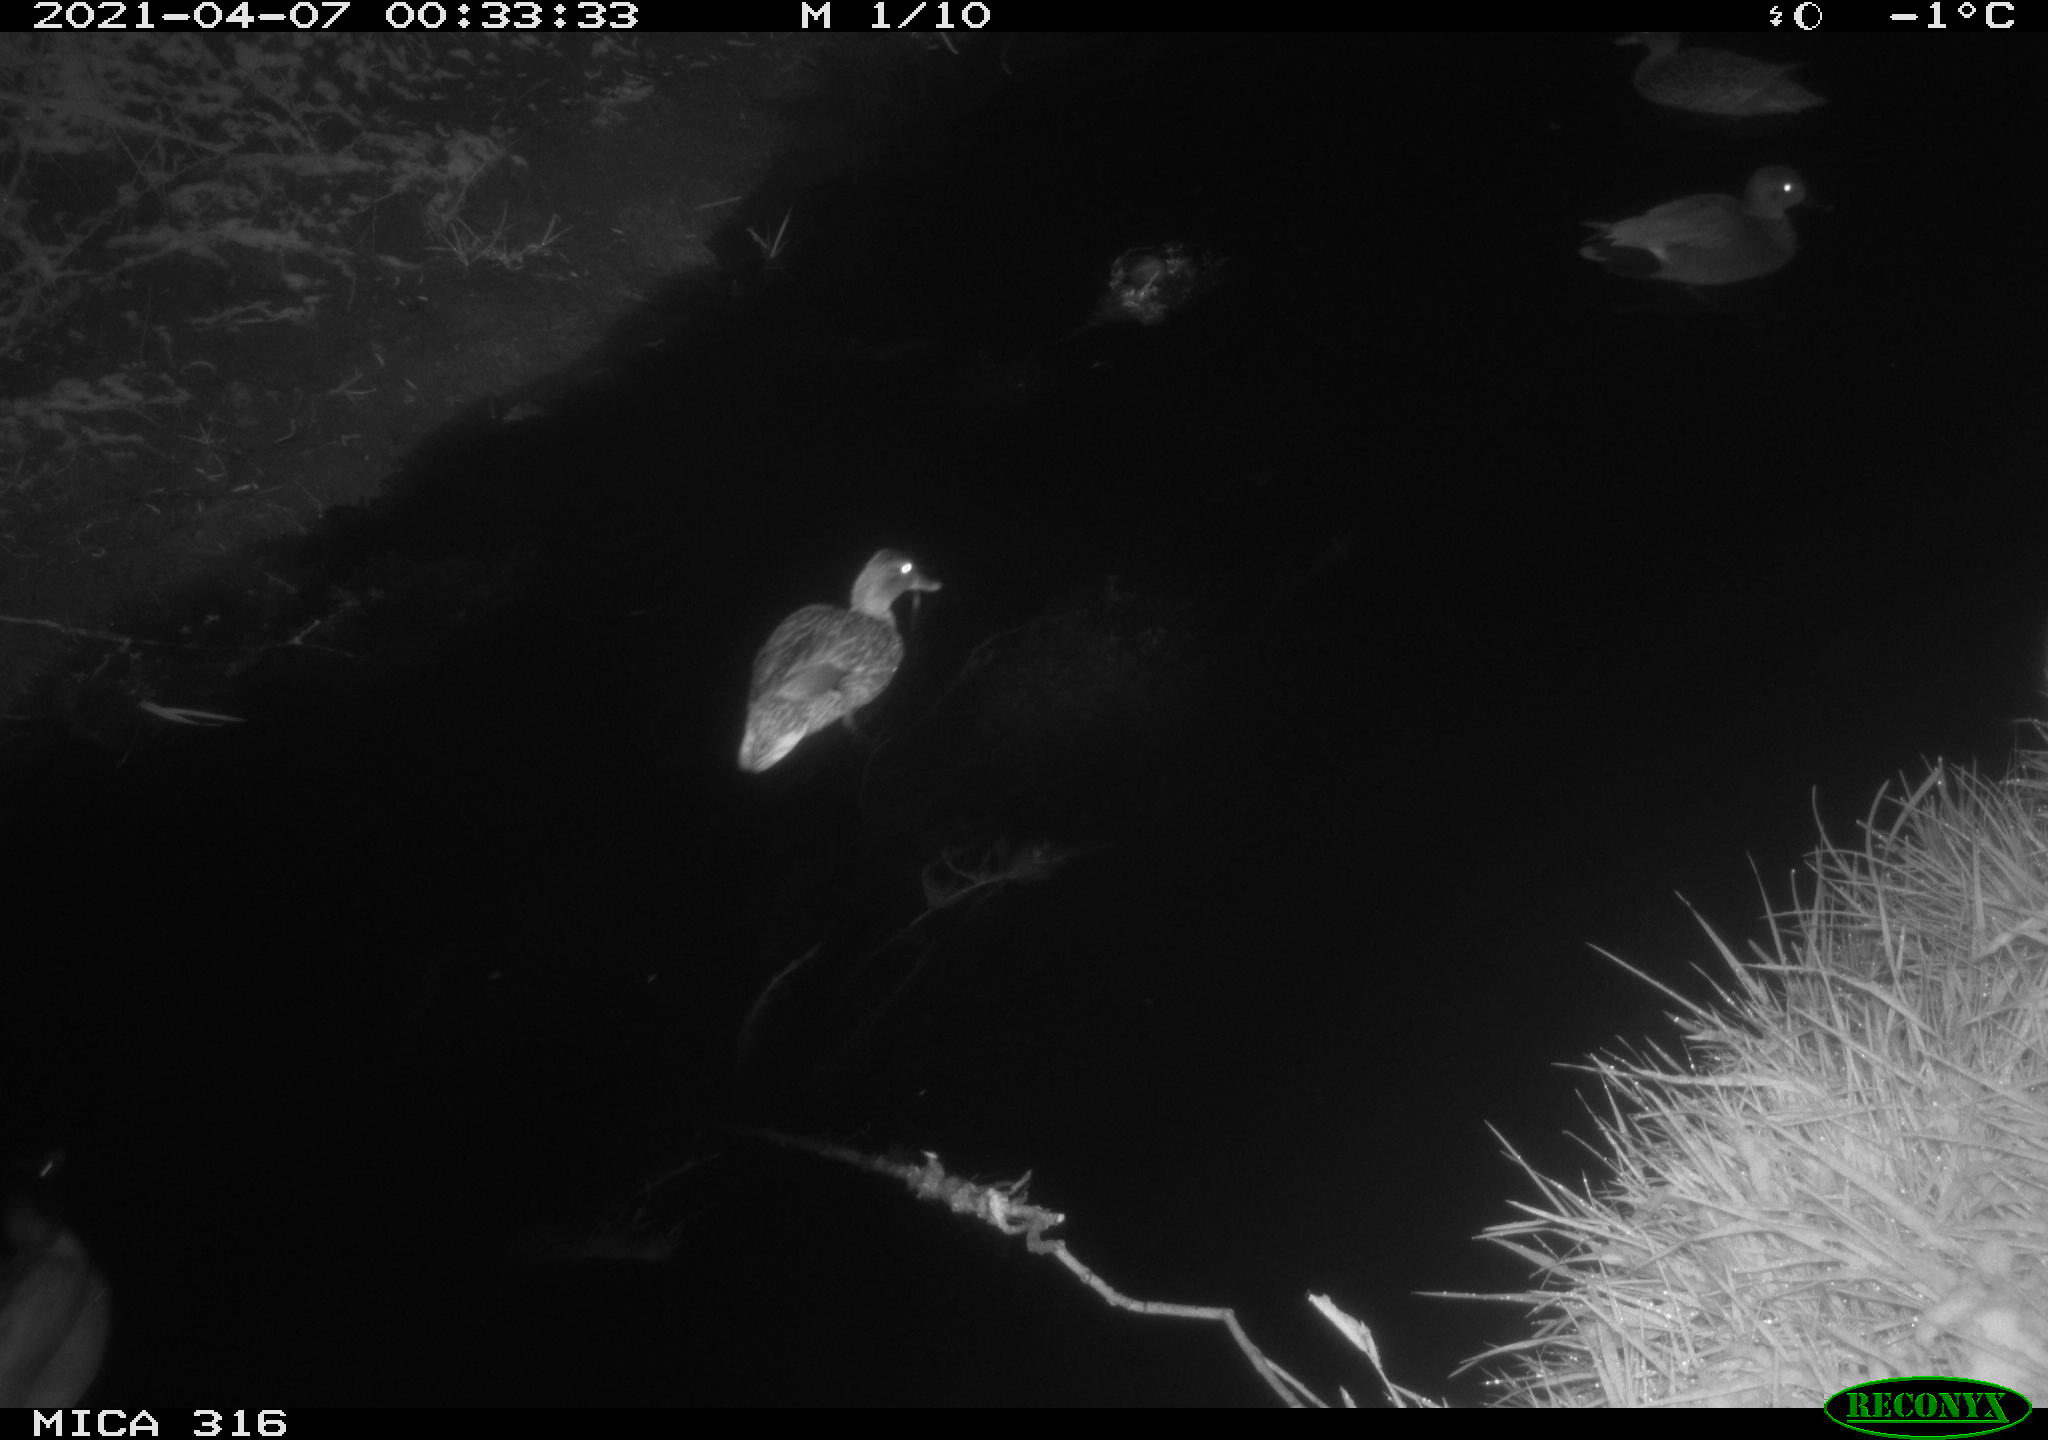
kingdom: Animalia
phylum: Chordata
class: Aves
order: Anseriformes
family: Anatidae
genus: Mareca
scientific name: Mareca strepera
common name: Gadwall
